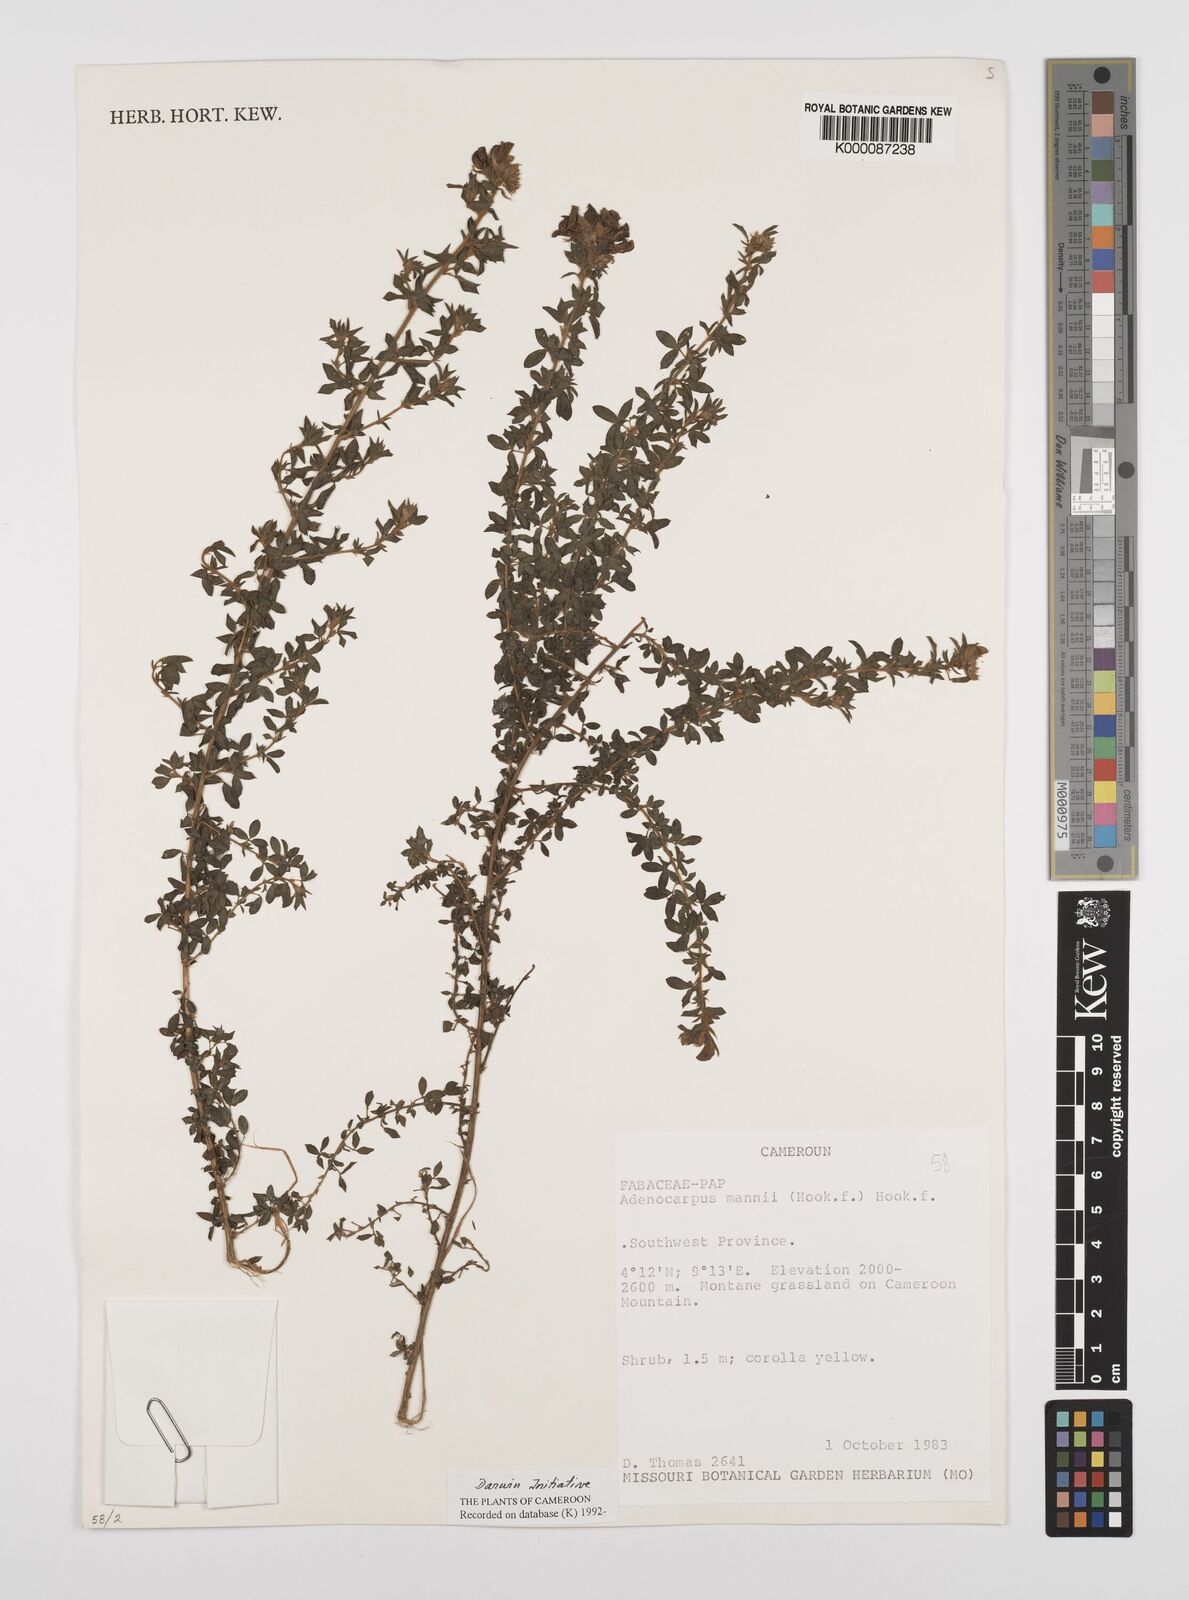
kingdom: Plantae
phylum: Tracheophyta
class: Magnoliopsida
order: Fabales
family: Fabaceae
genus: Adenocarpus
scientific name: Adenocarpus mannii
